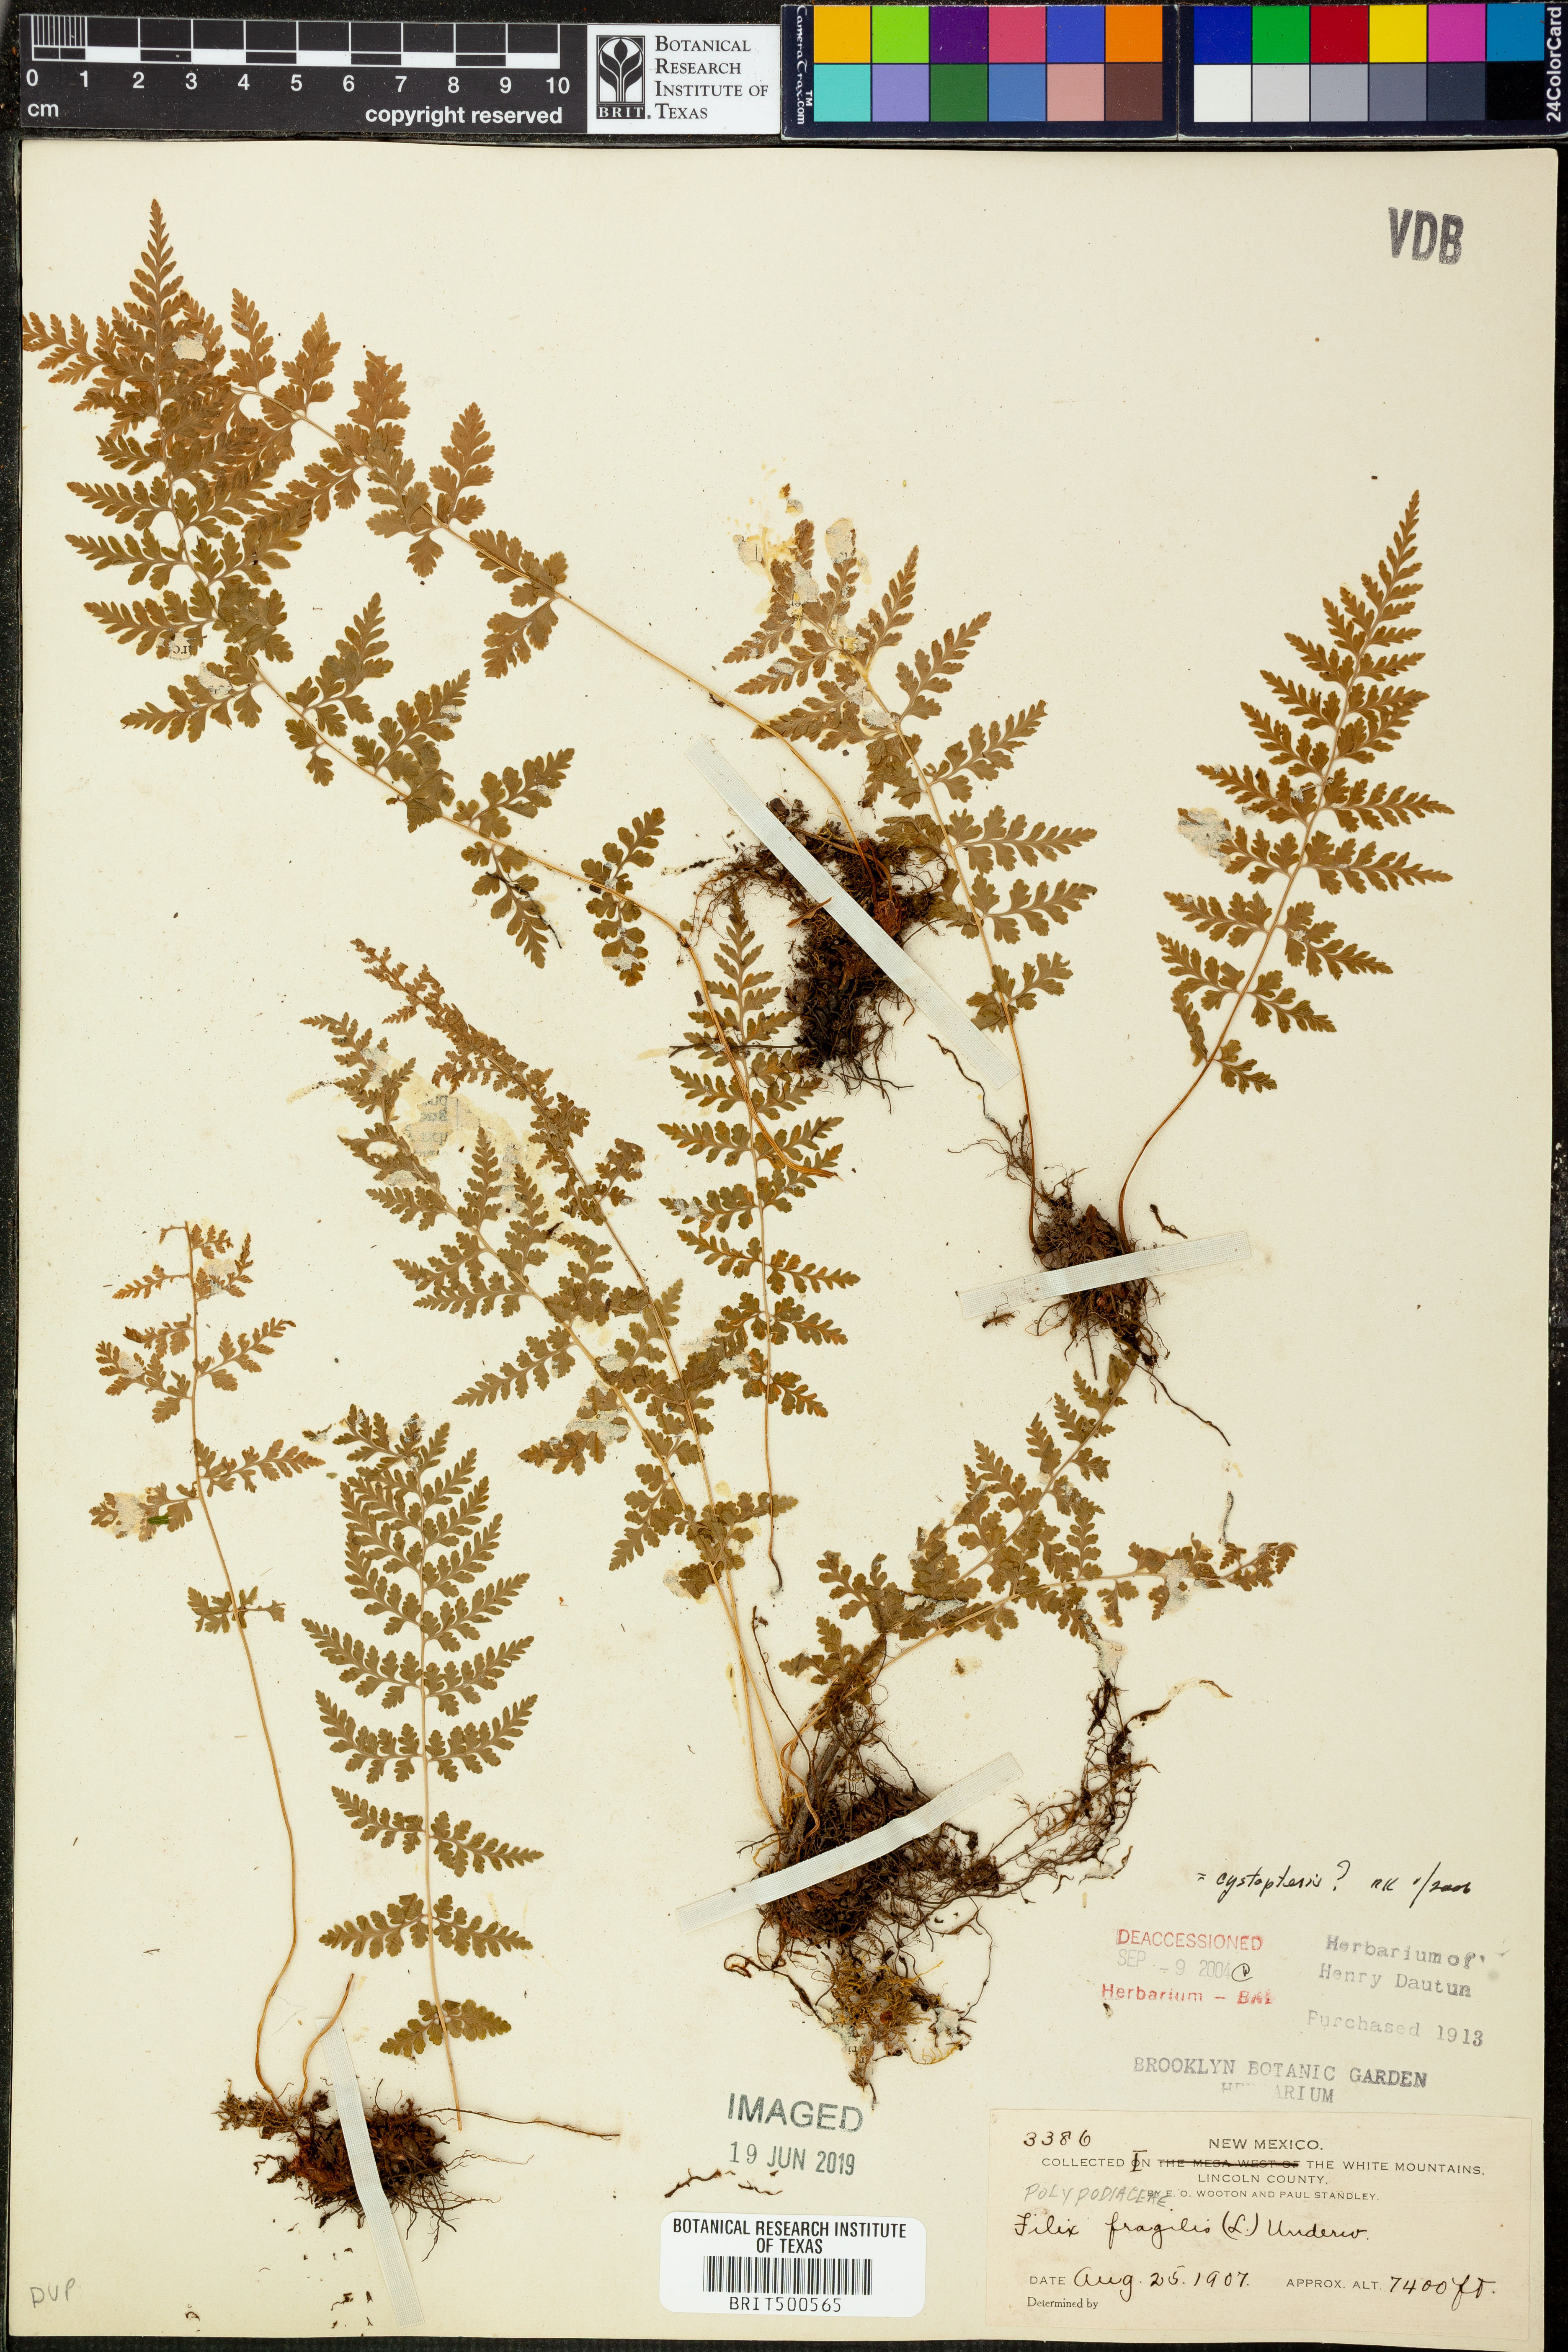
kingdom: Plantae
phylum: Tracheophyta
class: Polypodiopsida
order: Polypodiales
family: Cystopteridaceae
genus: Cystopteris
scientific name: Cystopteris fragilis
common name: Brittle bladder fern
